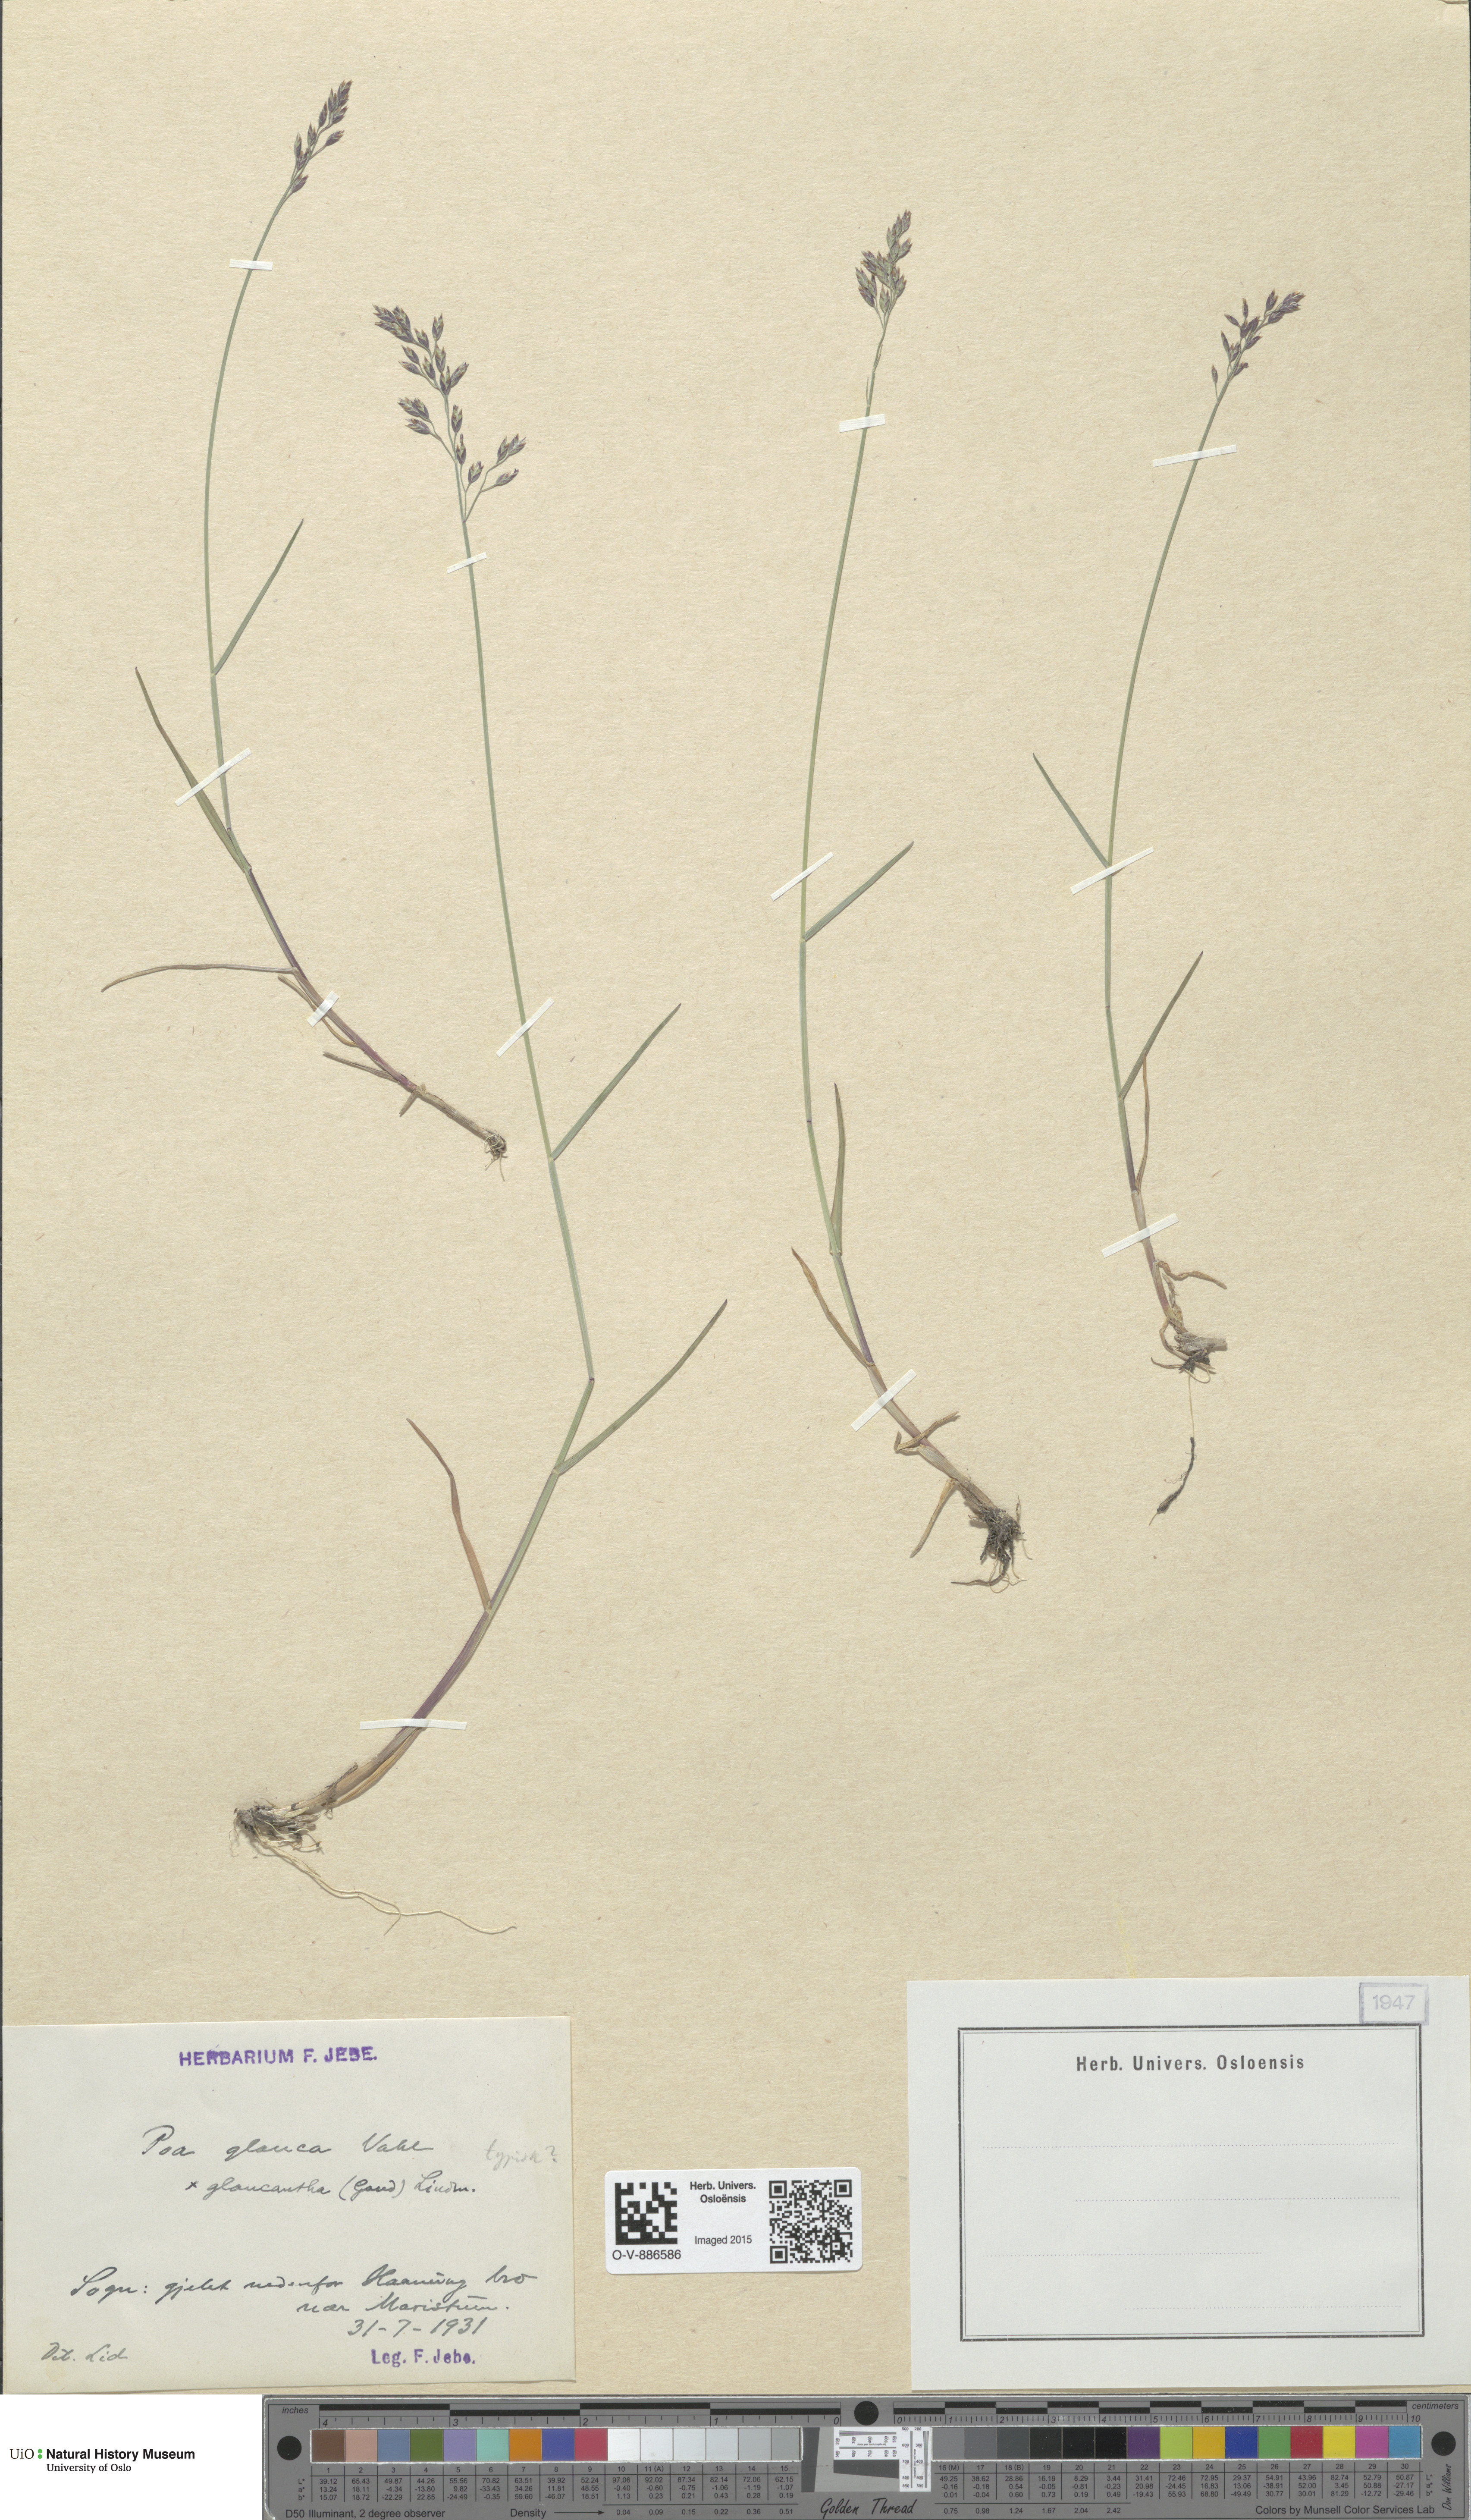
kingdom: Plantae
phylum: Tracheophyta
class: Liliopsida
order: Poales
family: Poaceae
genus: Poa
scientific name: Poa nemoralis
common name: Wood bluegrass
